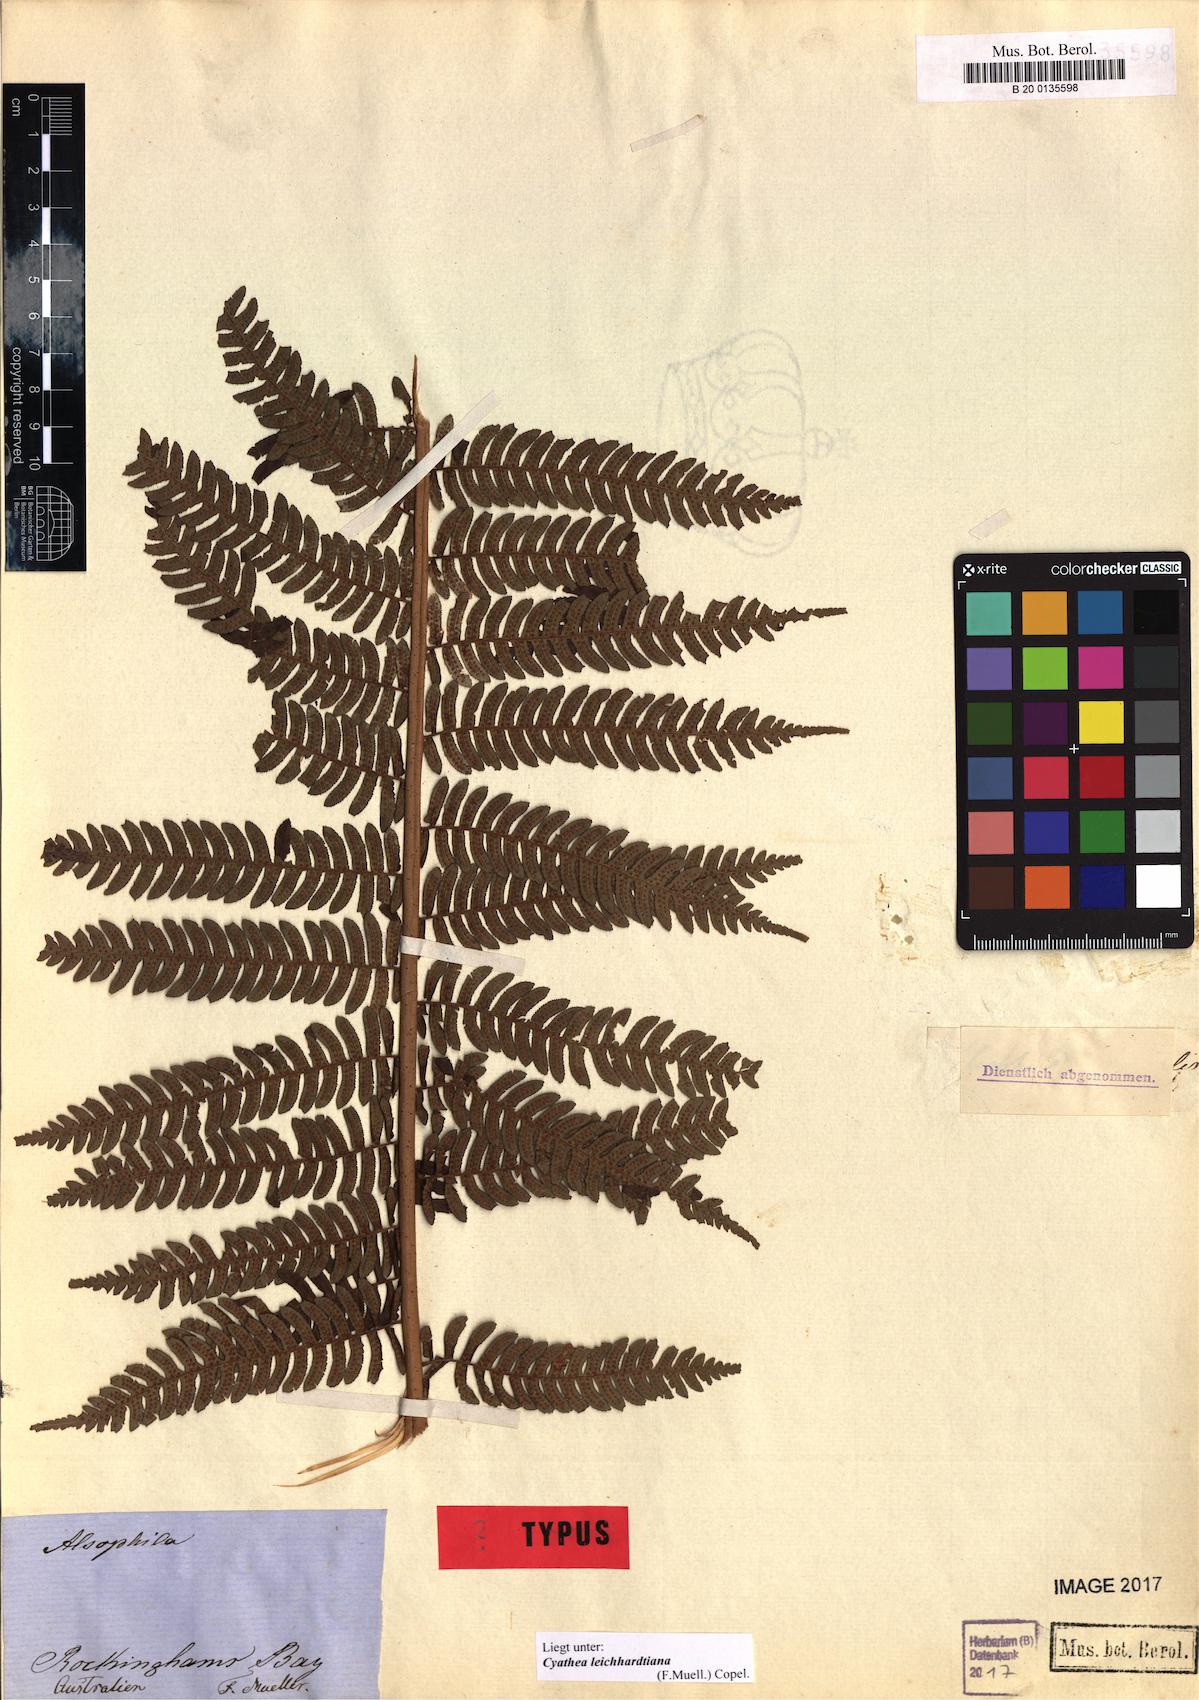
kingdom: Plantae
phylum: Tracheophyta
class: Polypodiopsida
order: Cyatheales
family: Cyatheaceae
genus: Alsophila
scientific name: Alsophila leichhardtiana
